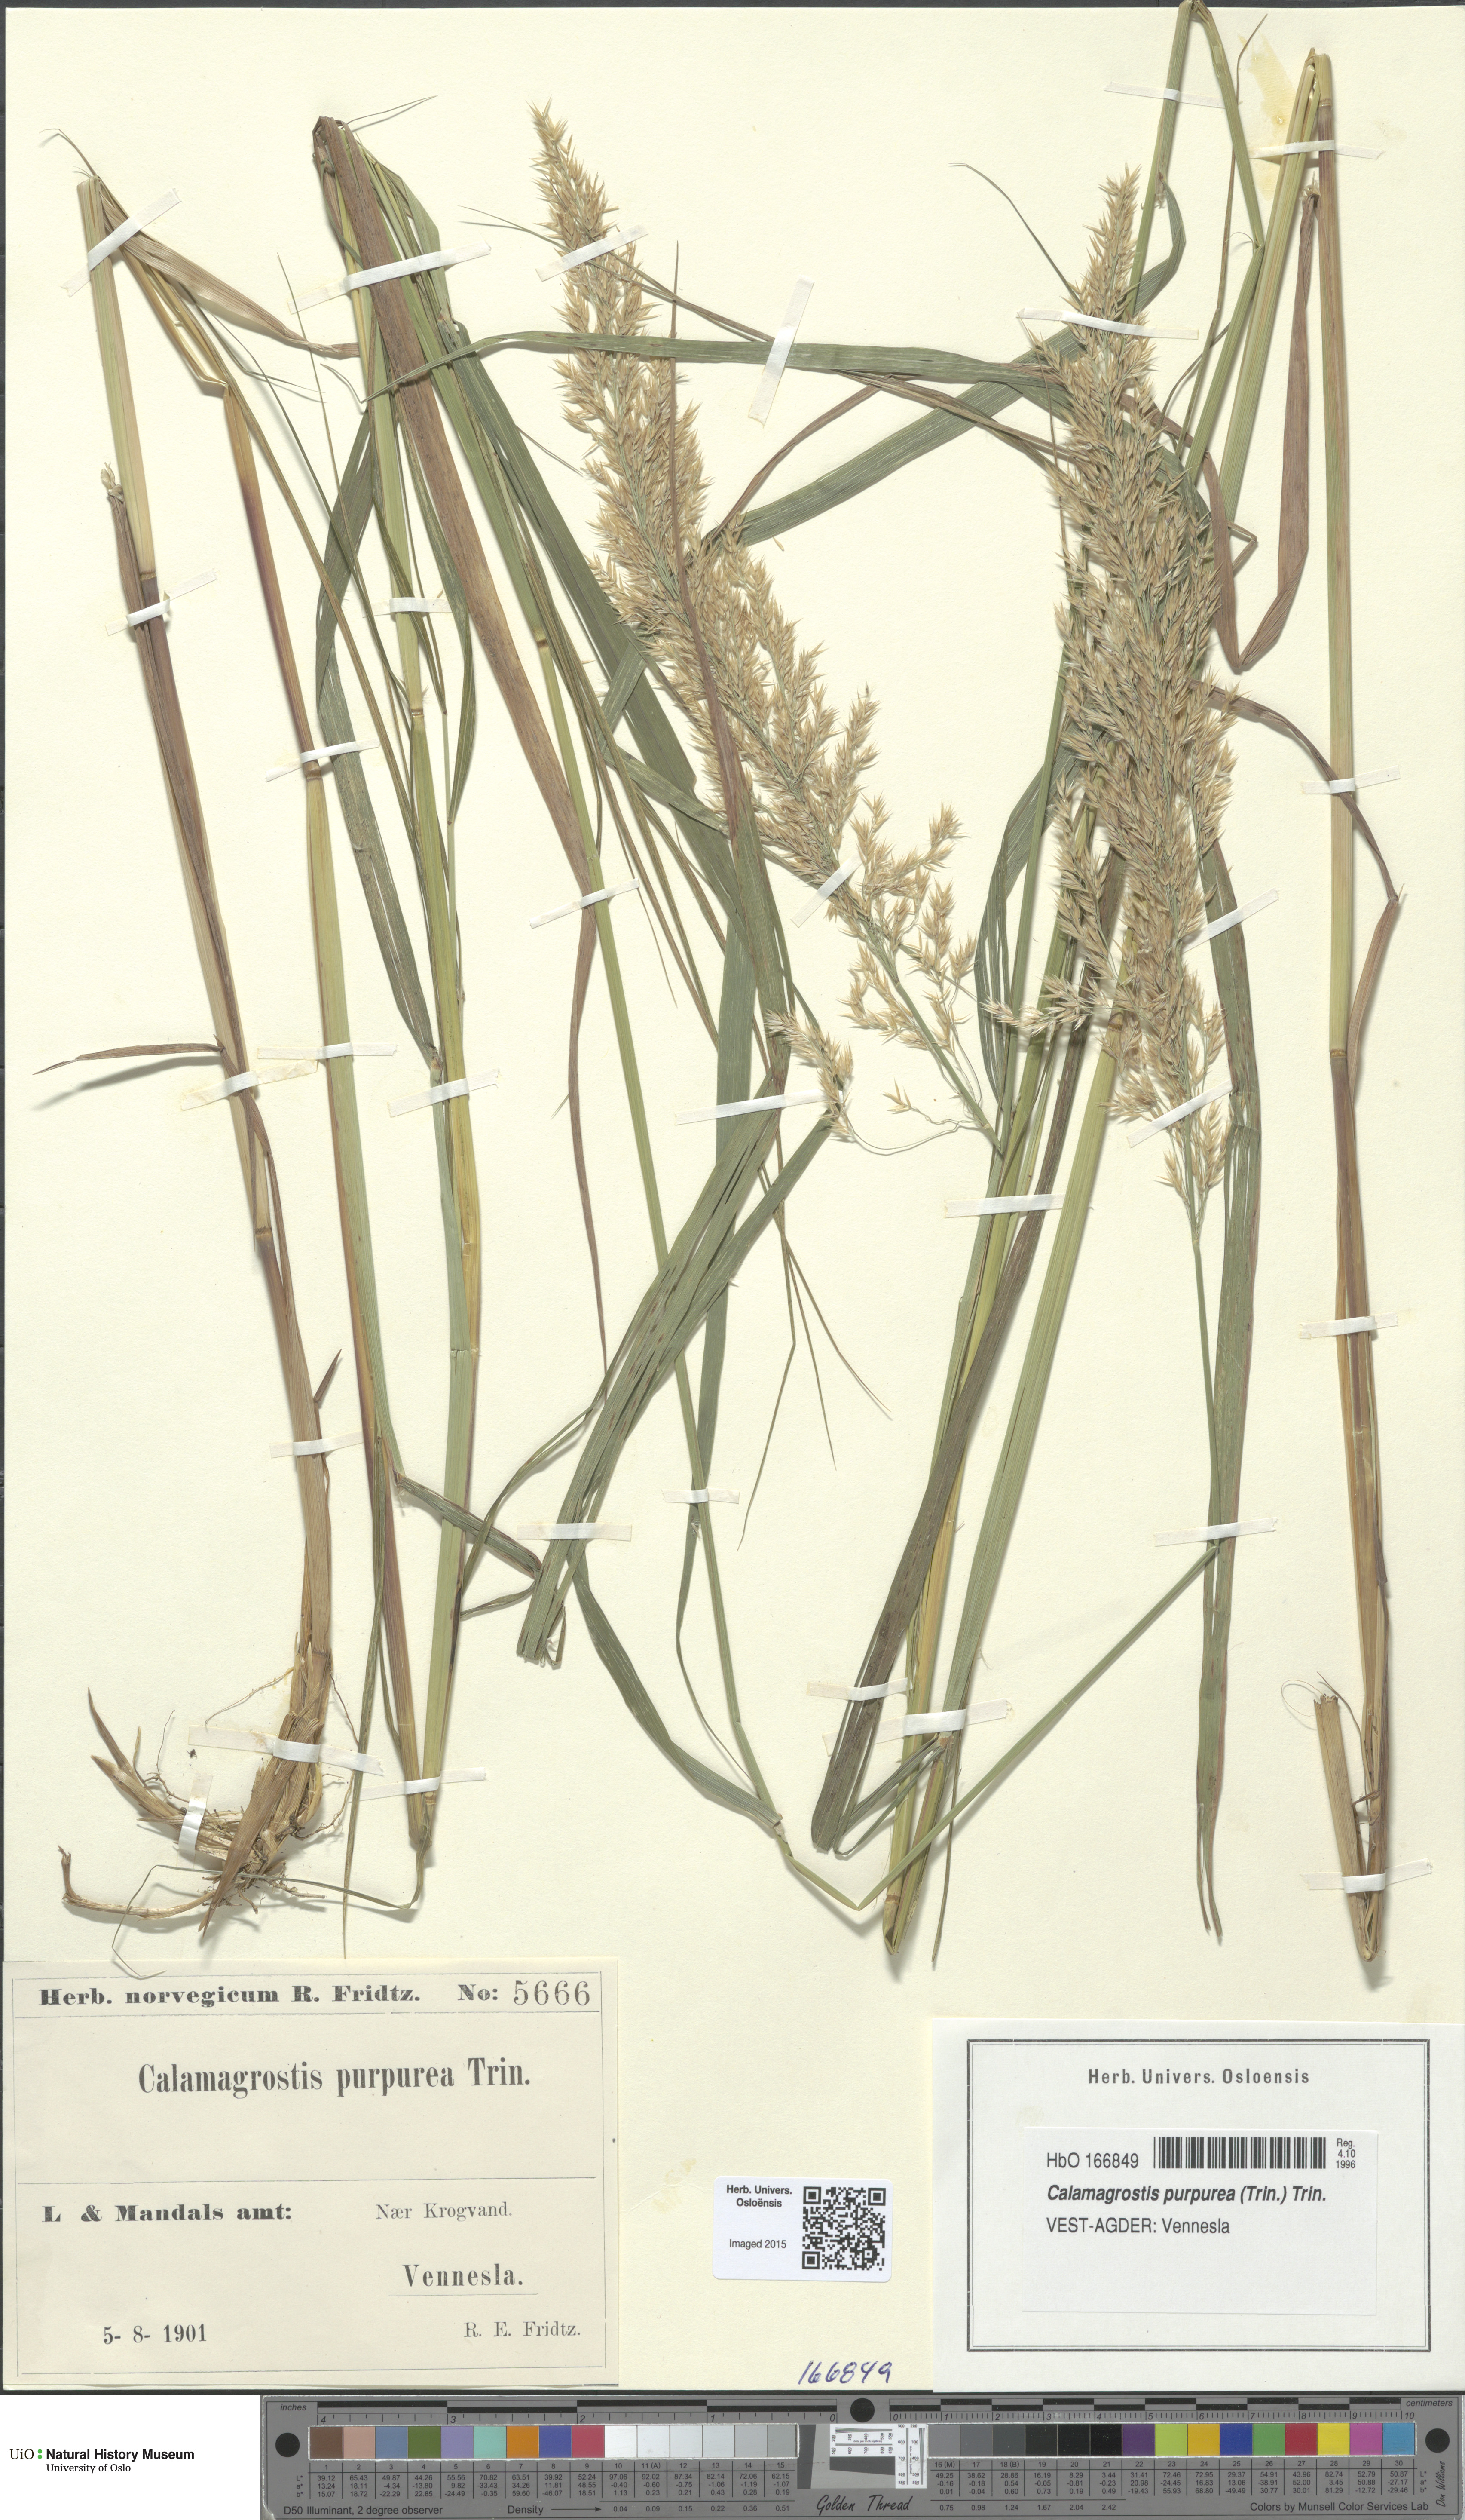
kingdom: Plantae
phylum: Tracheophyta
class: Liliopsida
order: Poales
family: Poaceae
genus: Calamagrostis
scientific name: Calamagrostis purpurea
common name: Scandinavian small-reed
